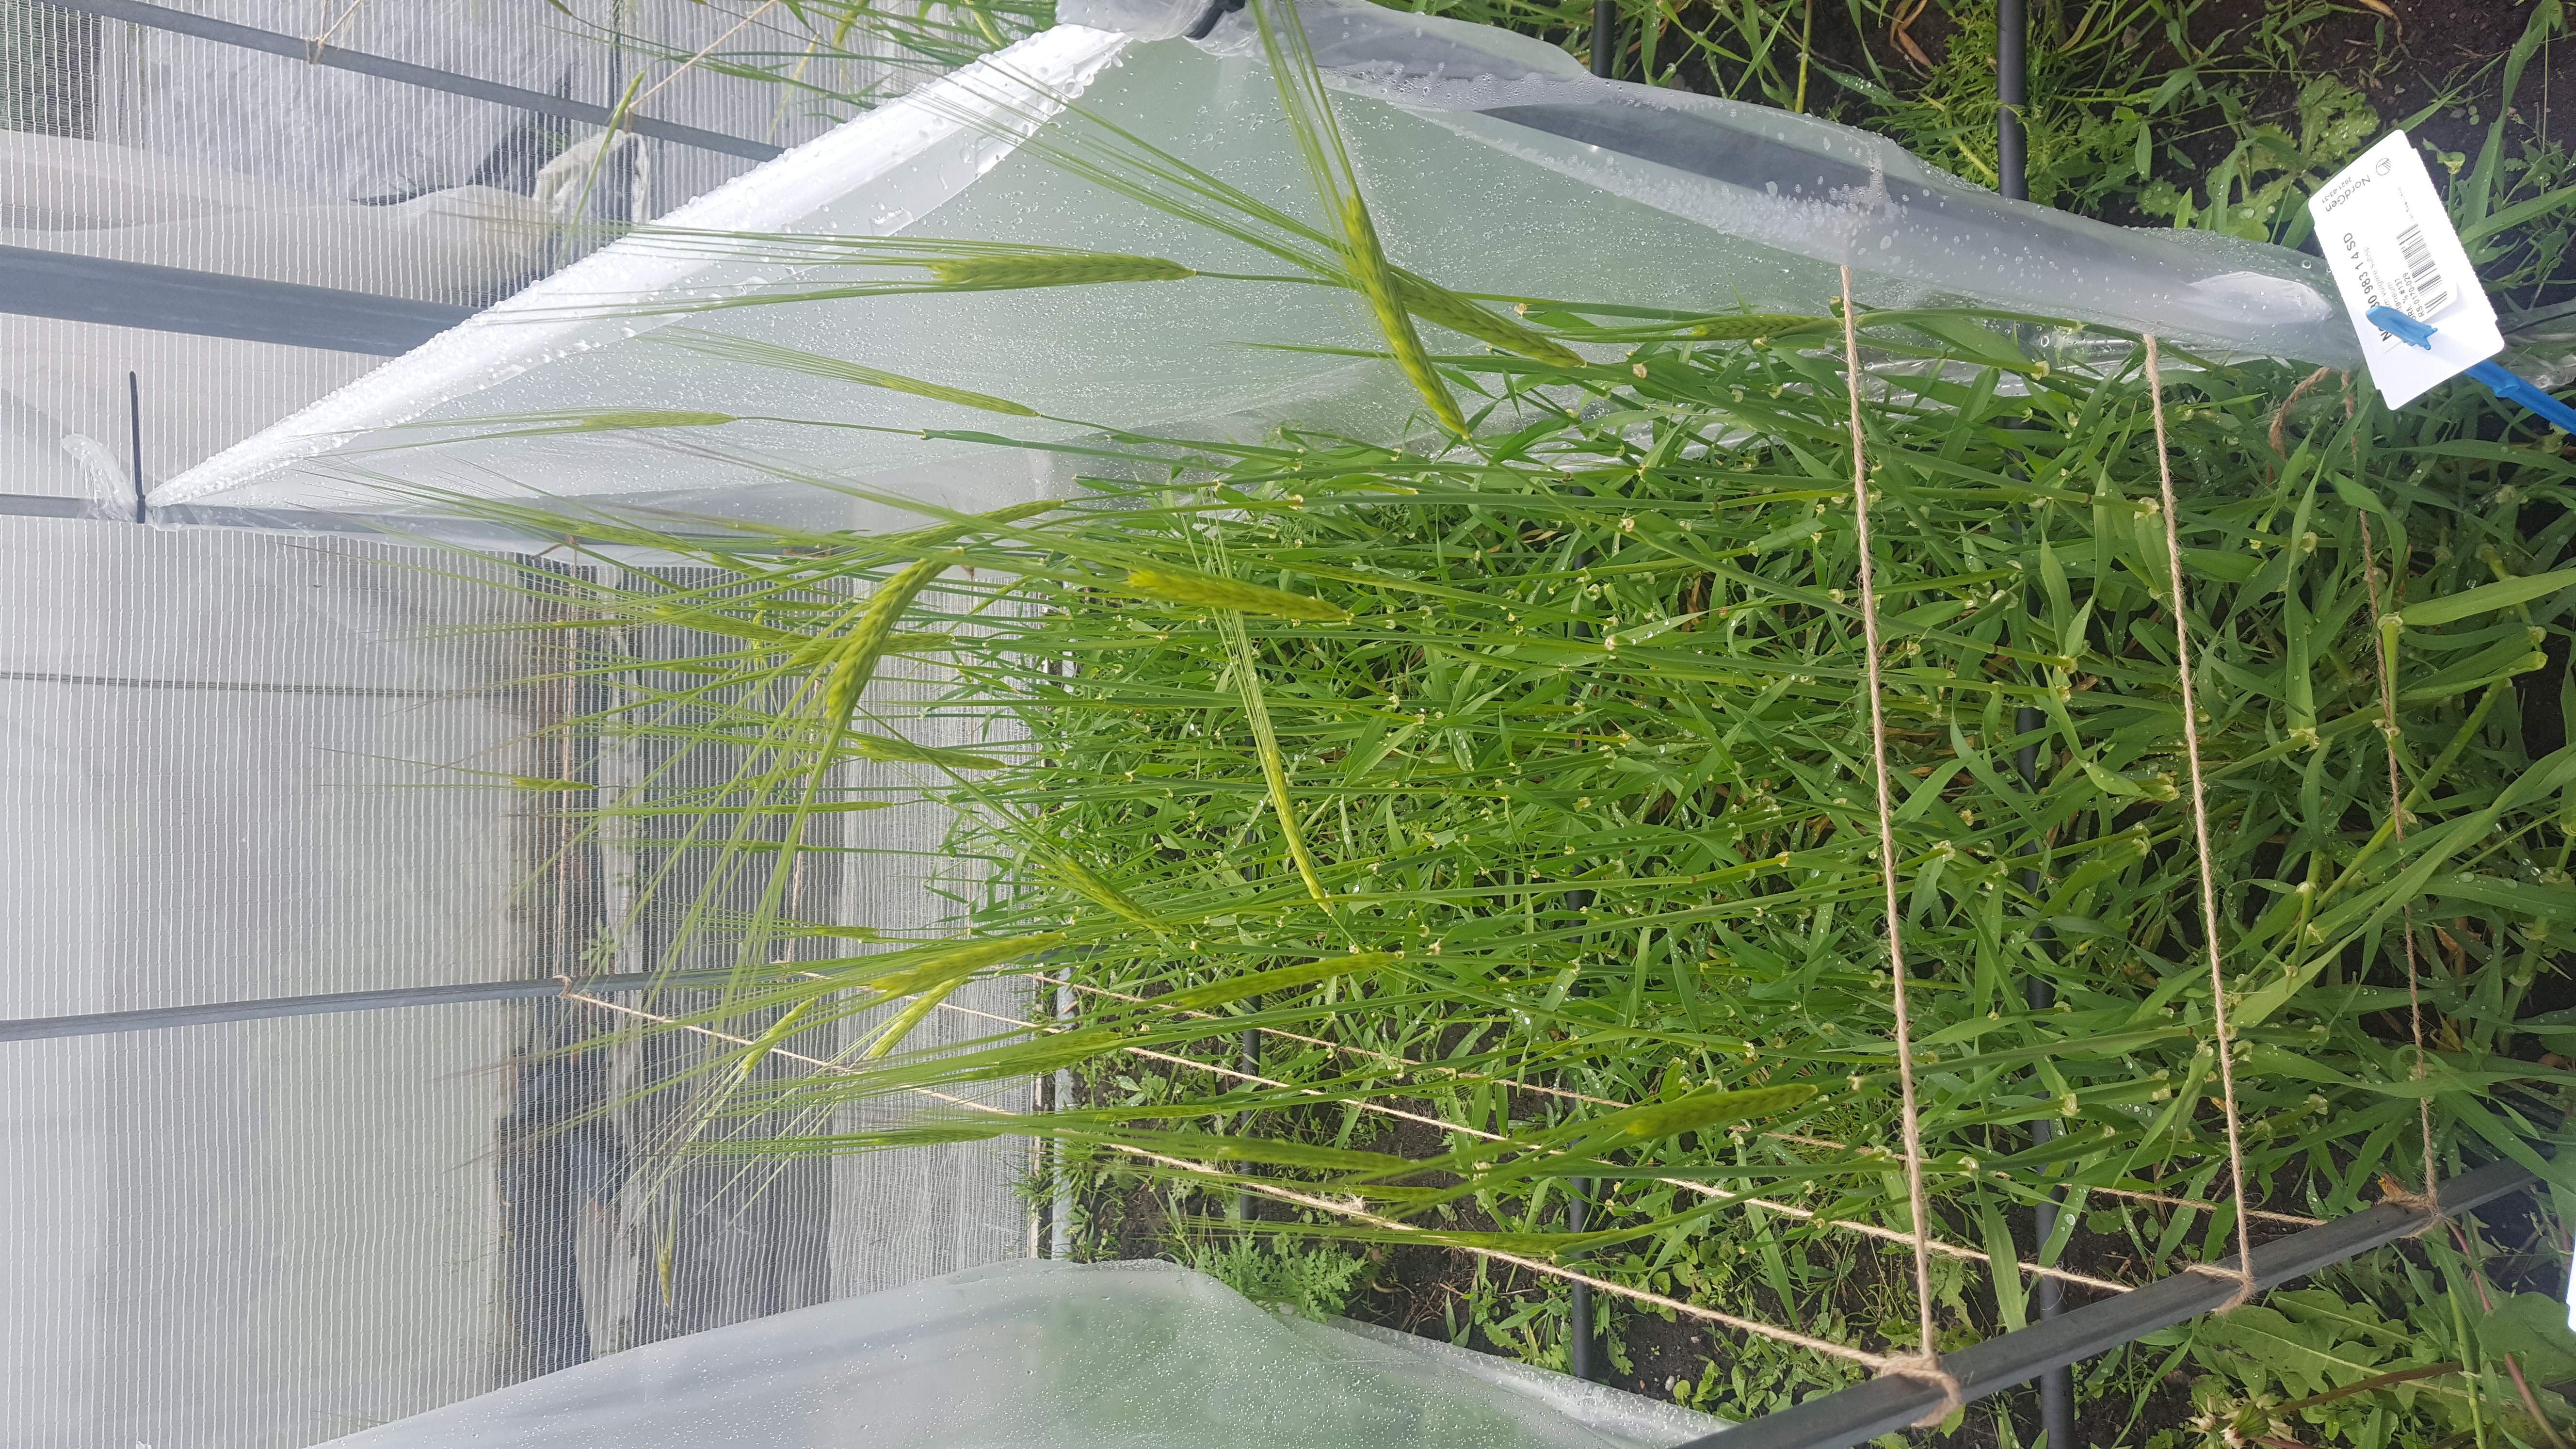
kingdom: Plantae
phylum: Tracheophyta
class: Liliopsida
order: Poales
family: Poaceae
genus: Hordeum
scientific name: Hordeum spontaneum
